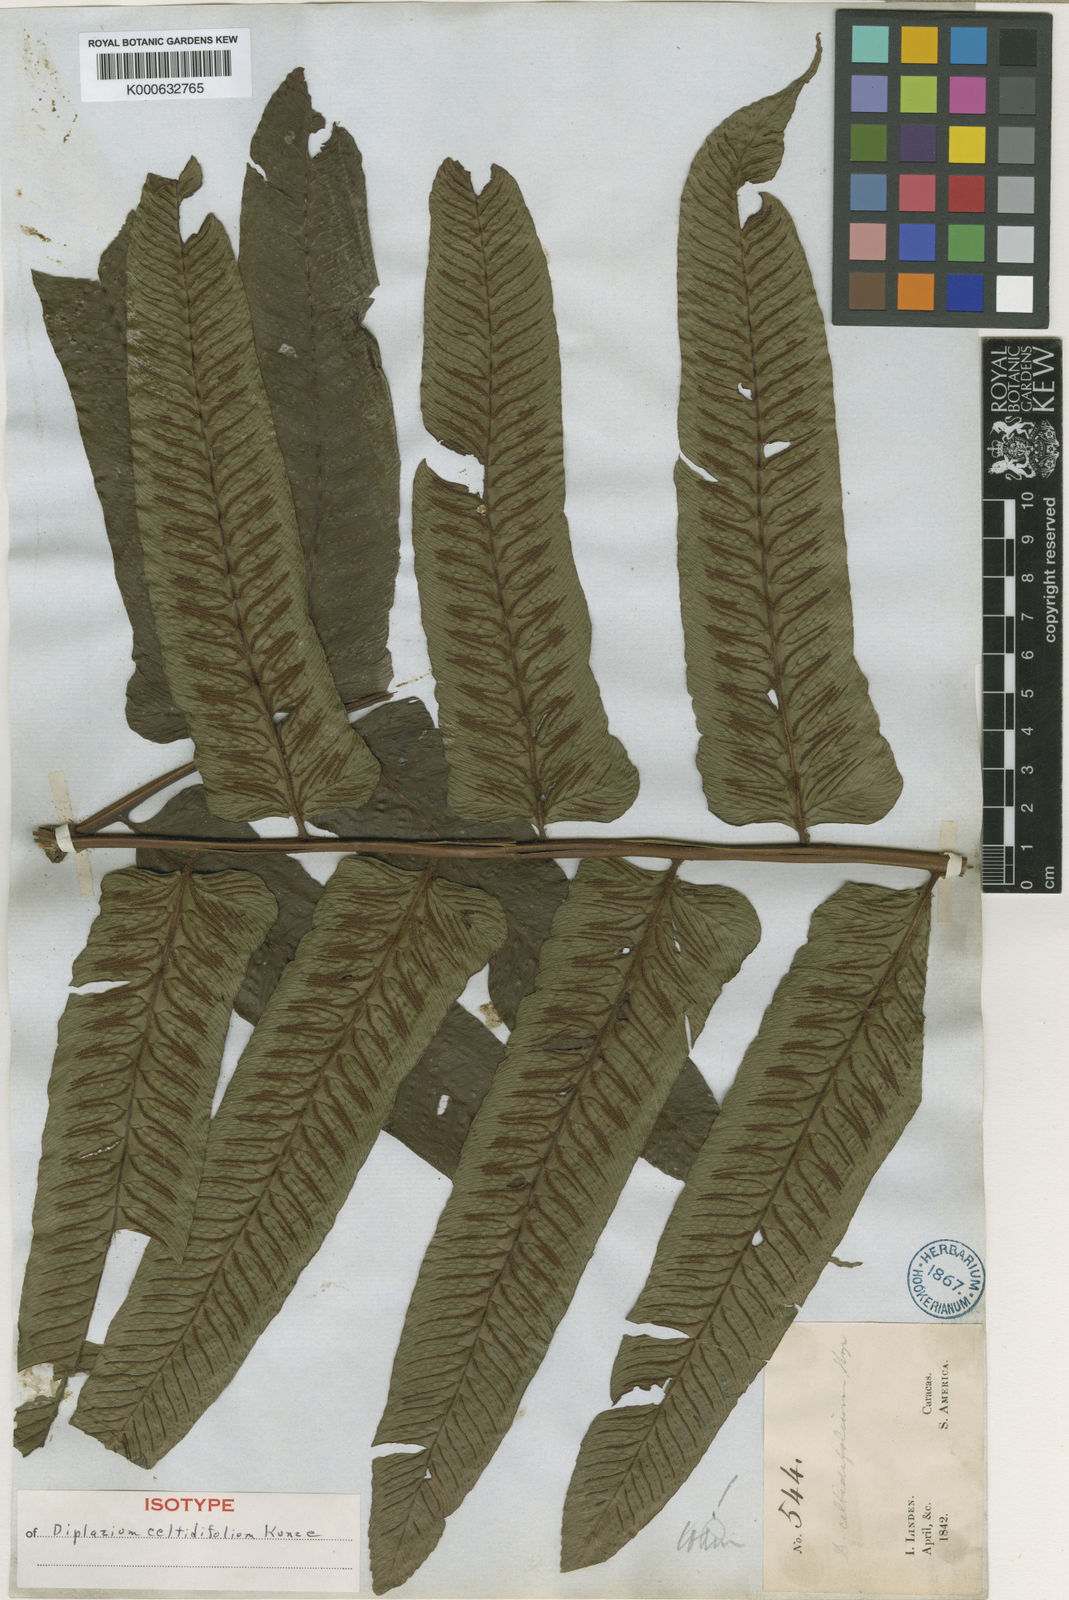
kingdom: Plantae
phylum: Tracheophyta
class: Polypodiopsida
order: Polypodiales
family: Athyriaceae
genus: Diplazium
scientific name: Diplazium celtidifolium
